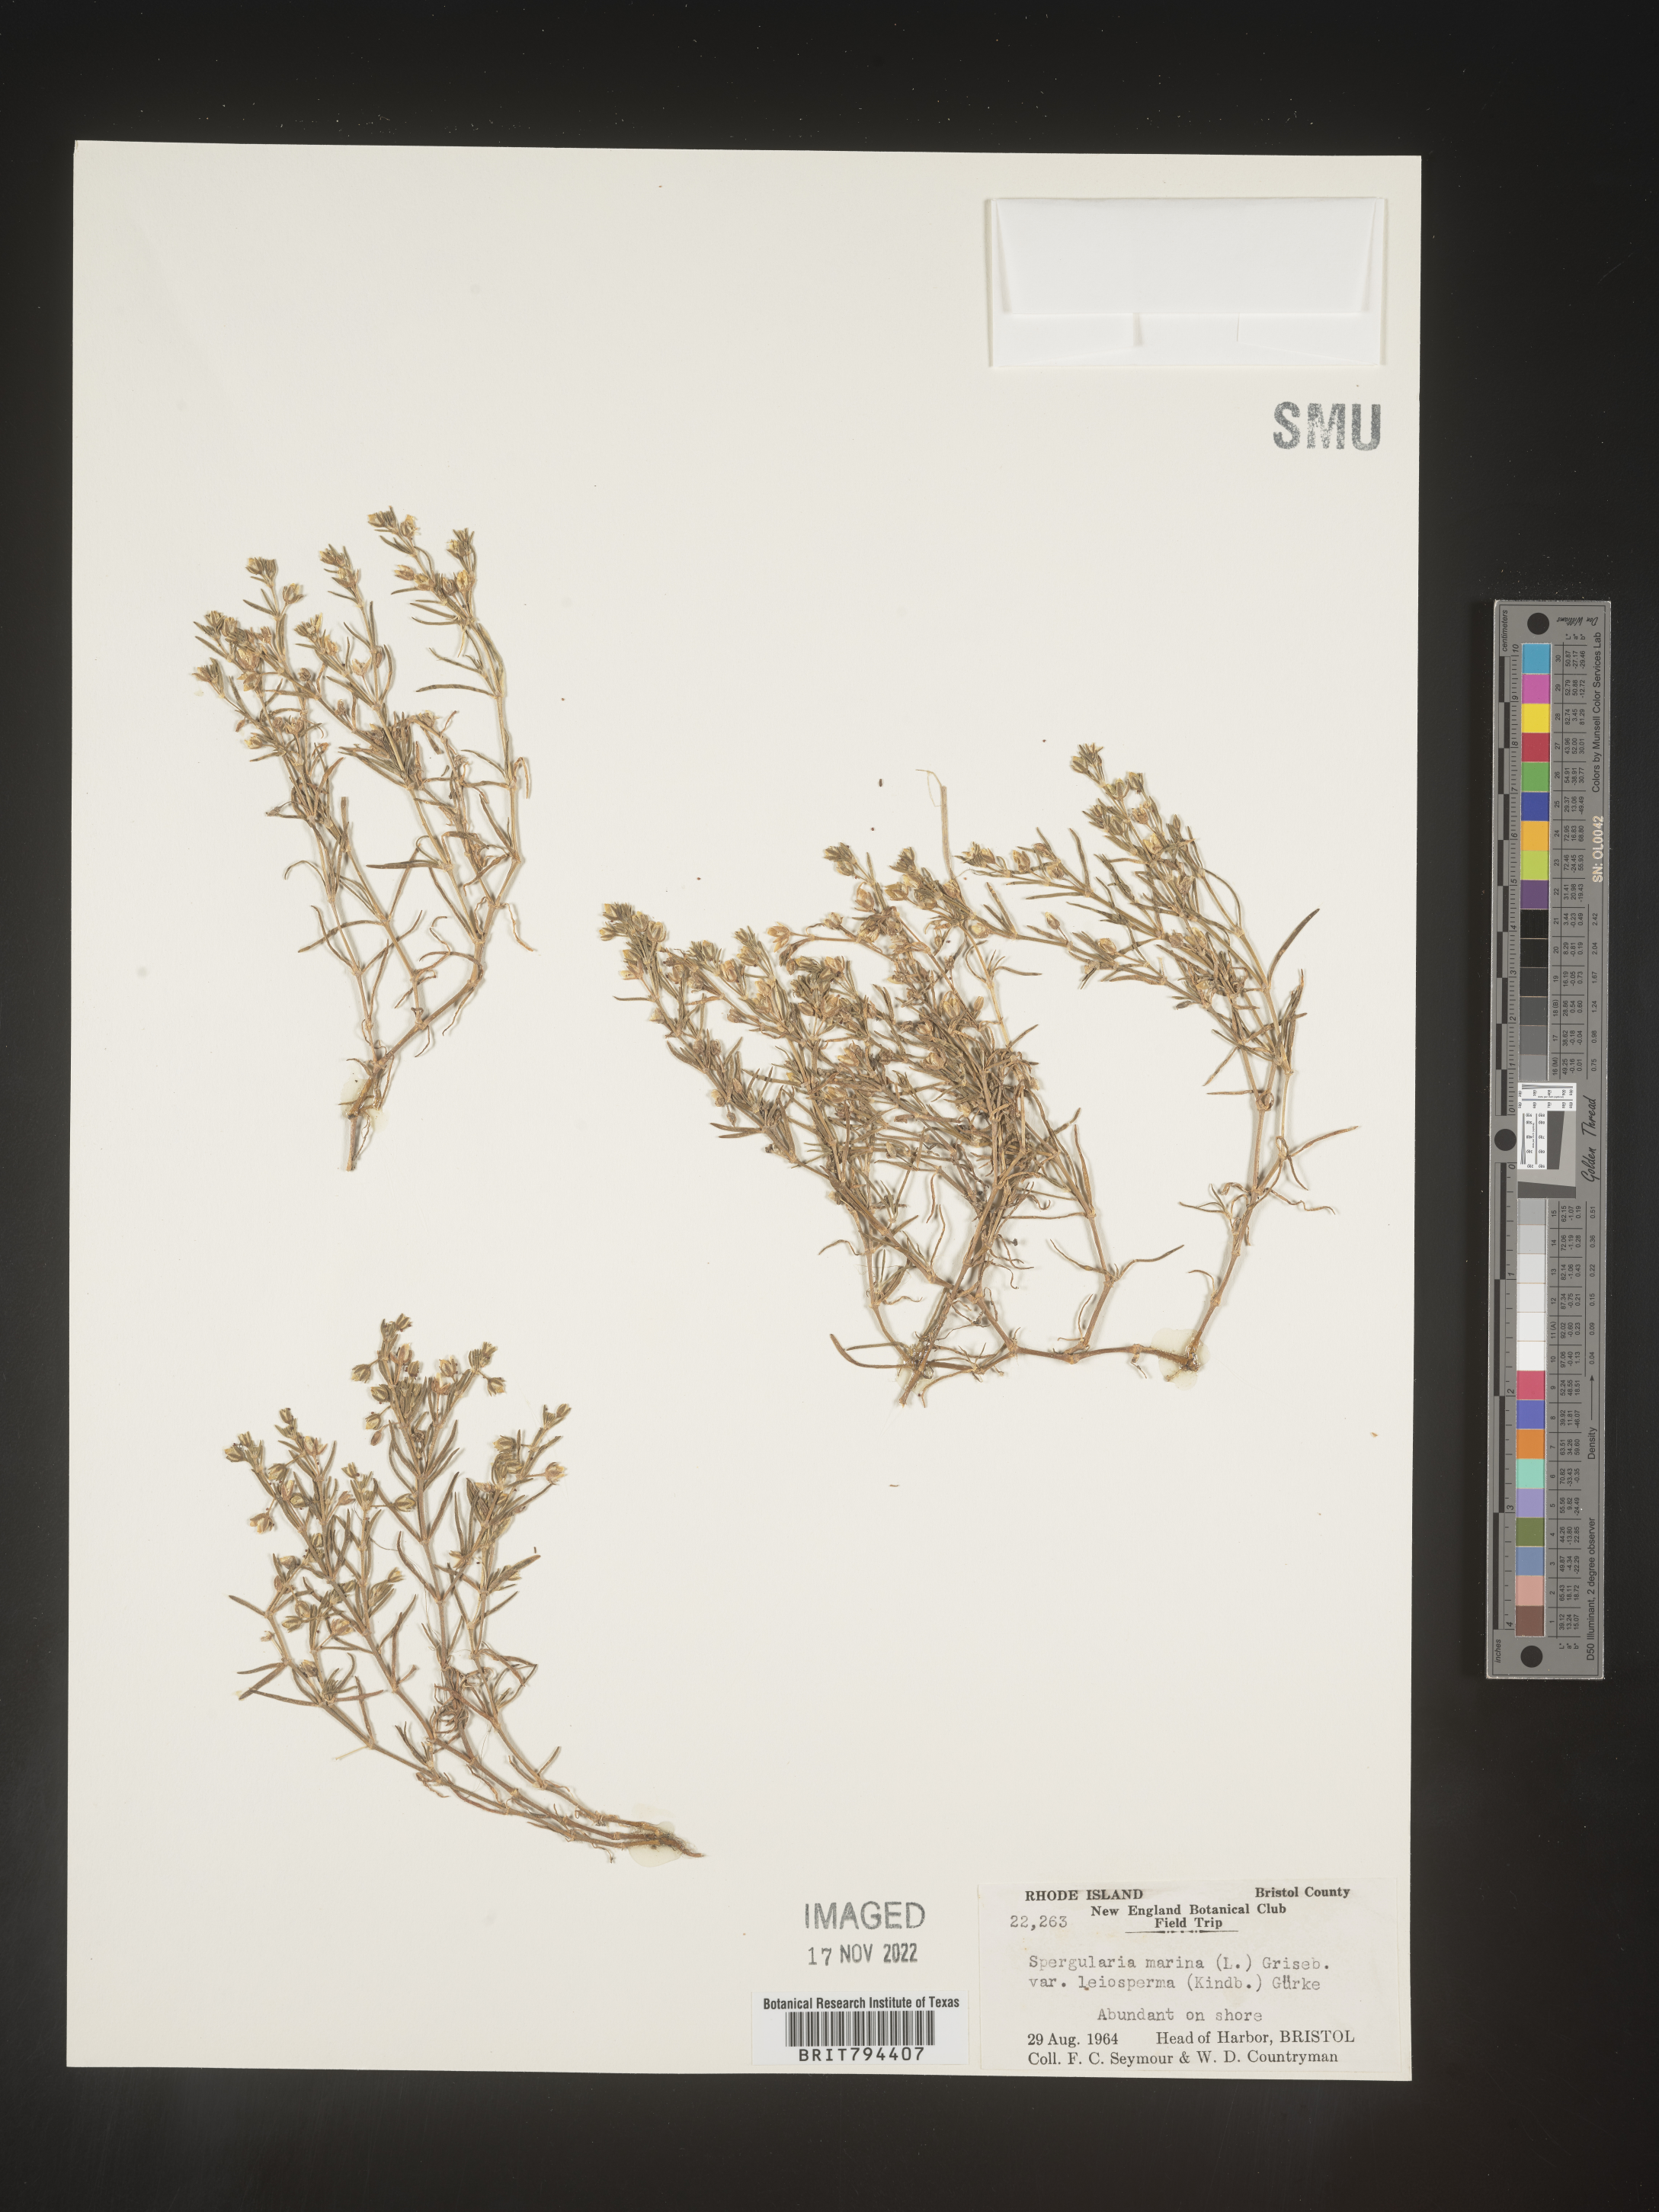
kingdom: Plantae
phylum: Tracheophyta
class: Magnoliopsida
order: Caryophyllales
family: Caryophyllaceae
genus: Spergularia
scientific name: Spergularia marina
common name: Lesser sea-spurrey
